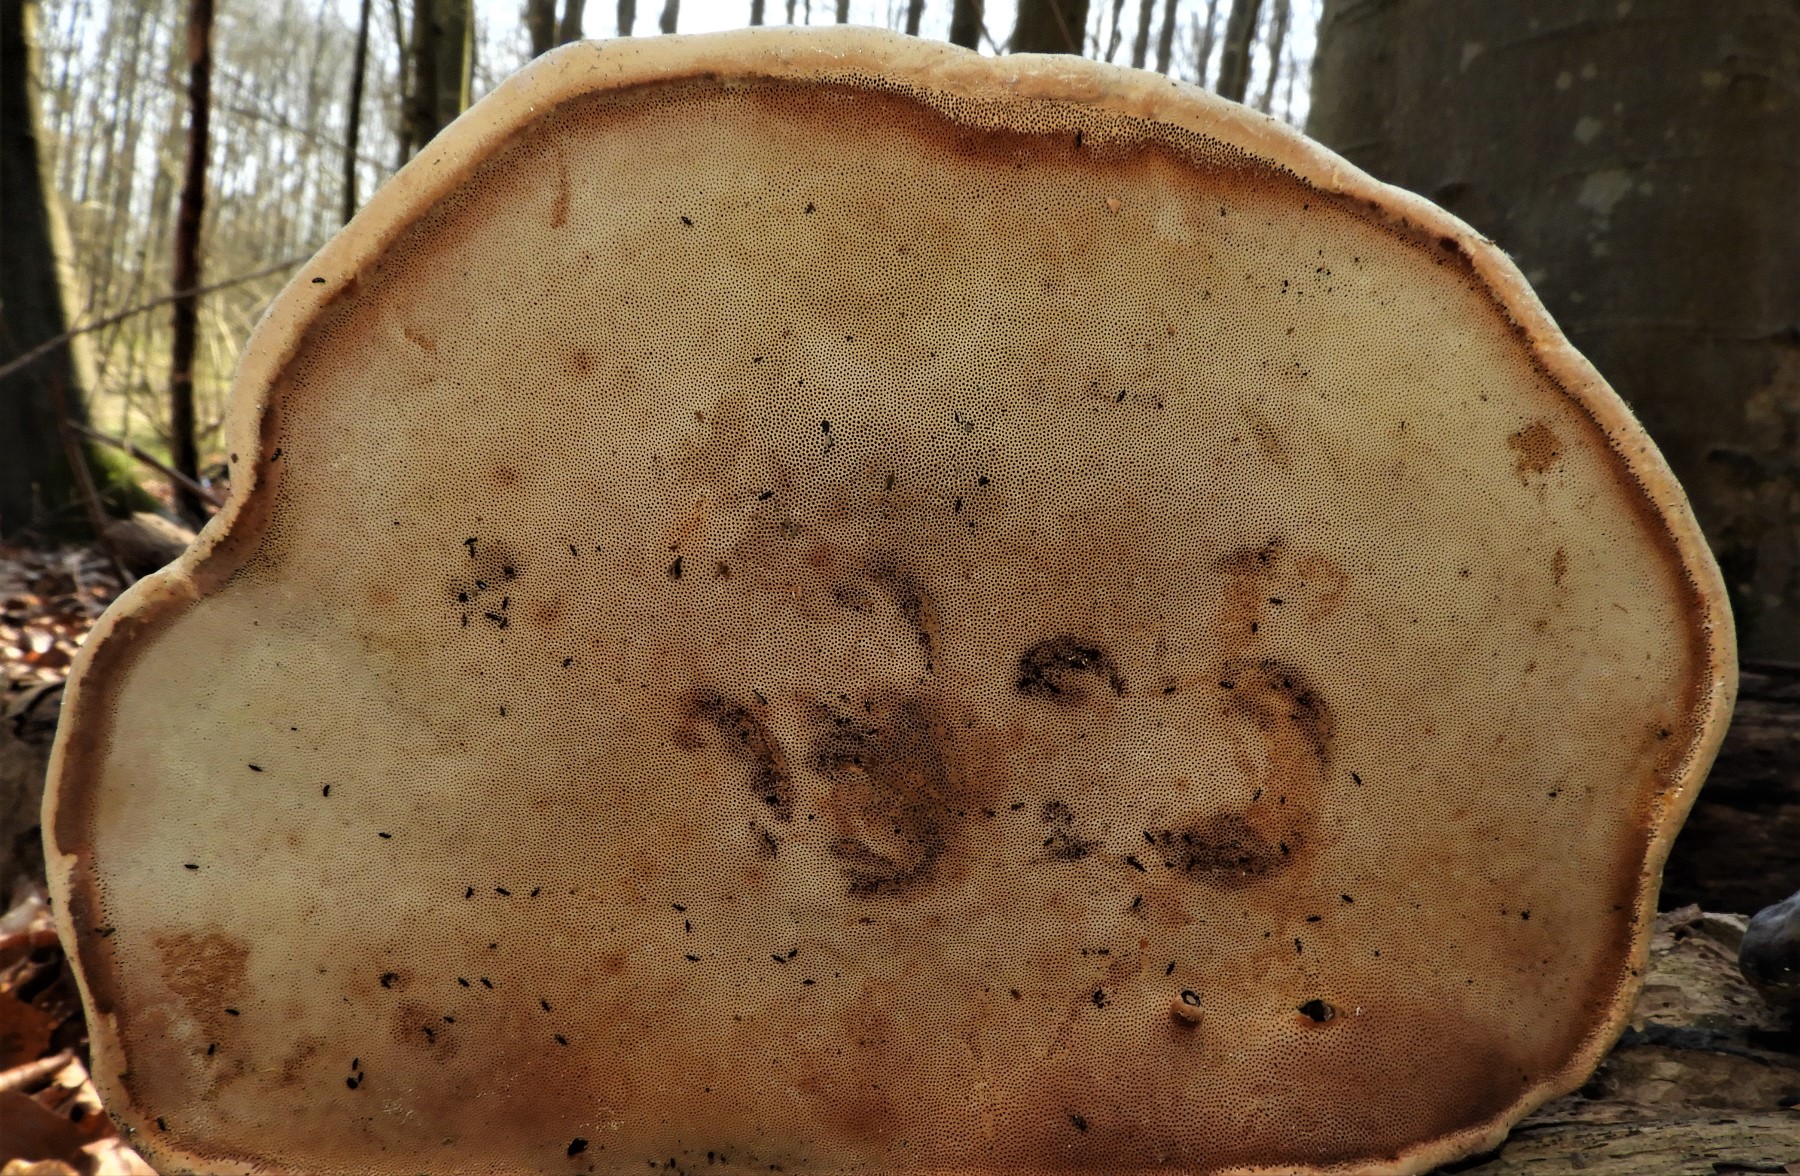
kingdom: Fungi
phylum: Basidiomycota
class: Agaricomycetes
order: Polyporales
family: Fomitopsidaceae
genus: Fomitopsis
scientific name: Fomitopsis pinicola
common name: randbæltet hovporesvamp
